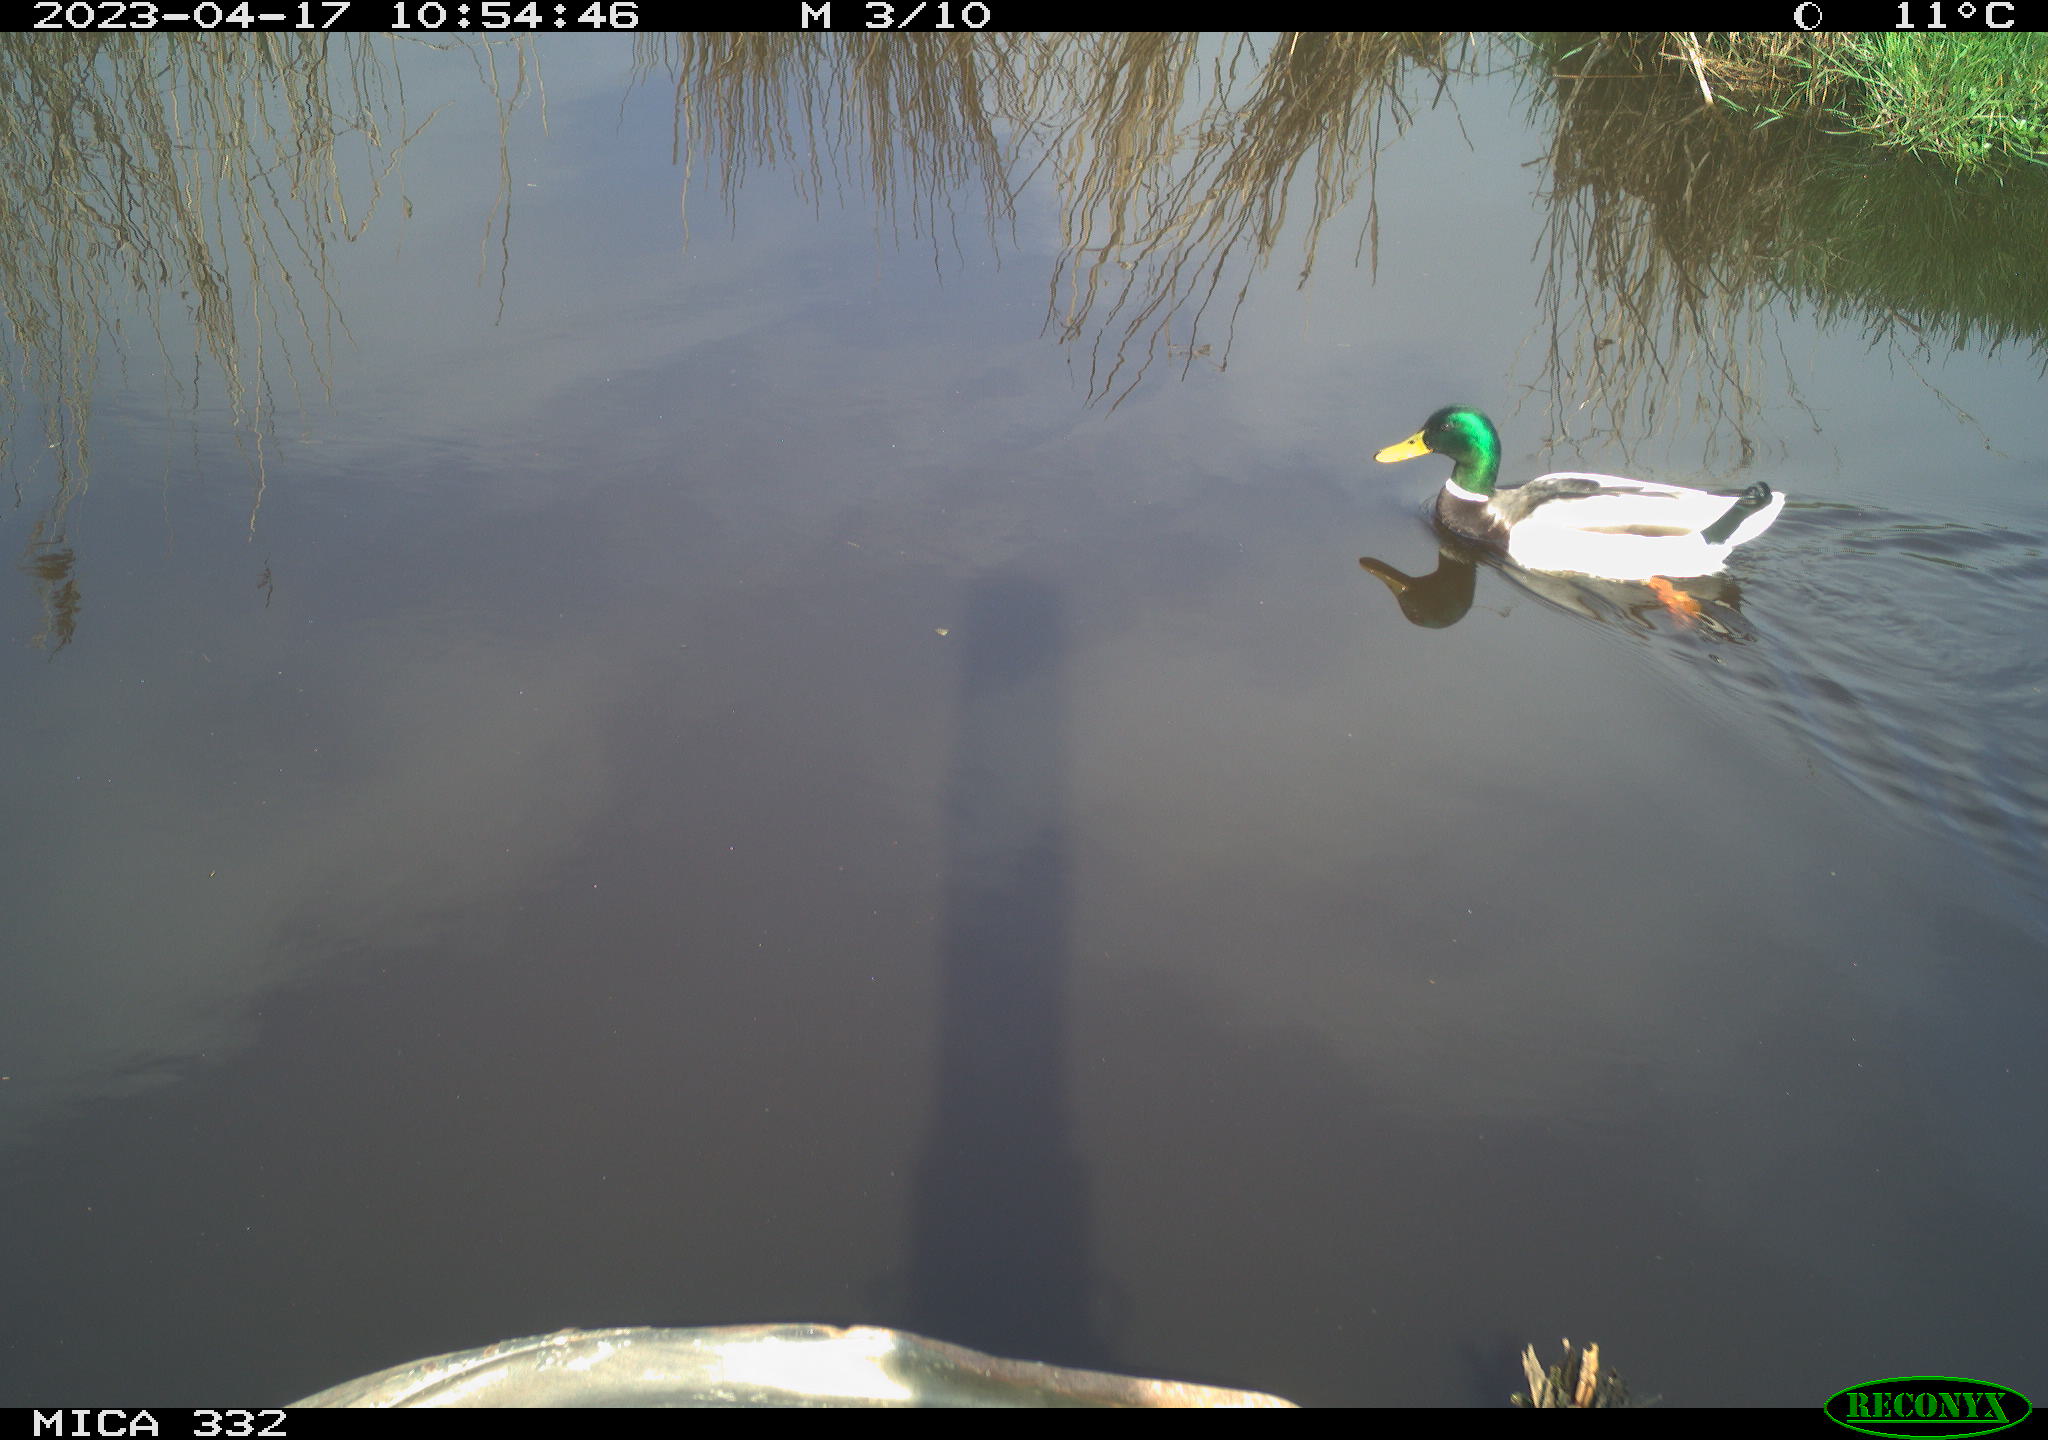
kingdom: Animalia
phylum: Chordata
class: Aves
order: Anseriformes
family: Anatidae
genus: Anas
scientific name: Anas
